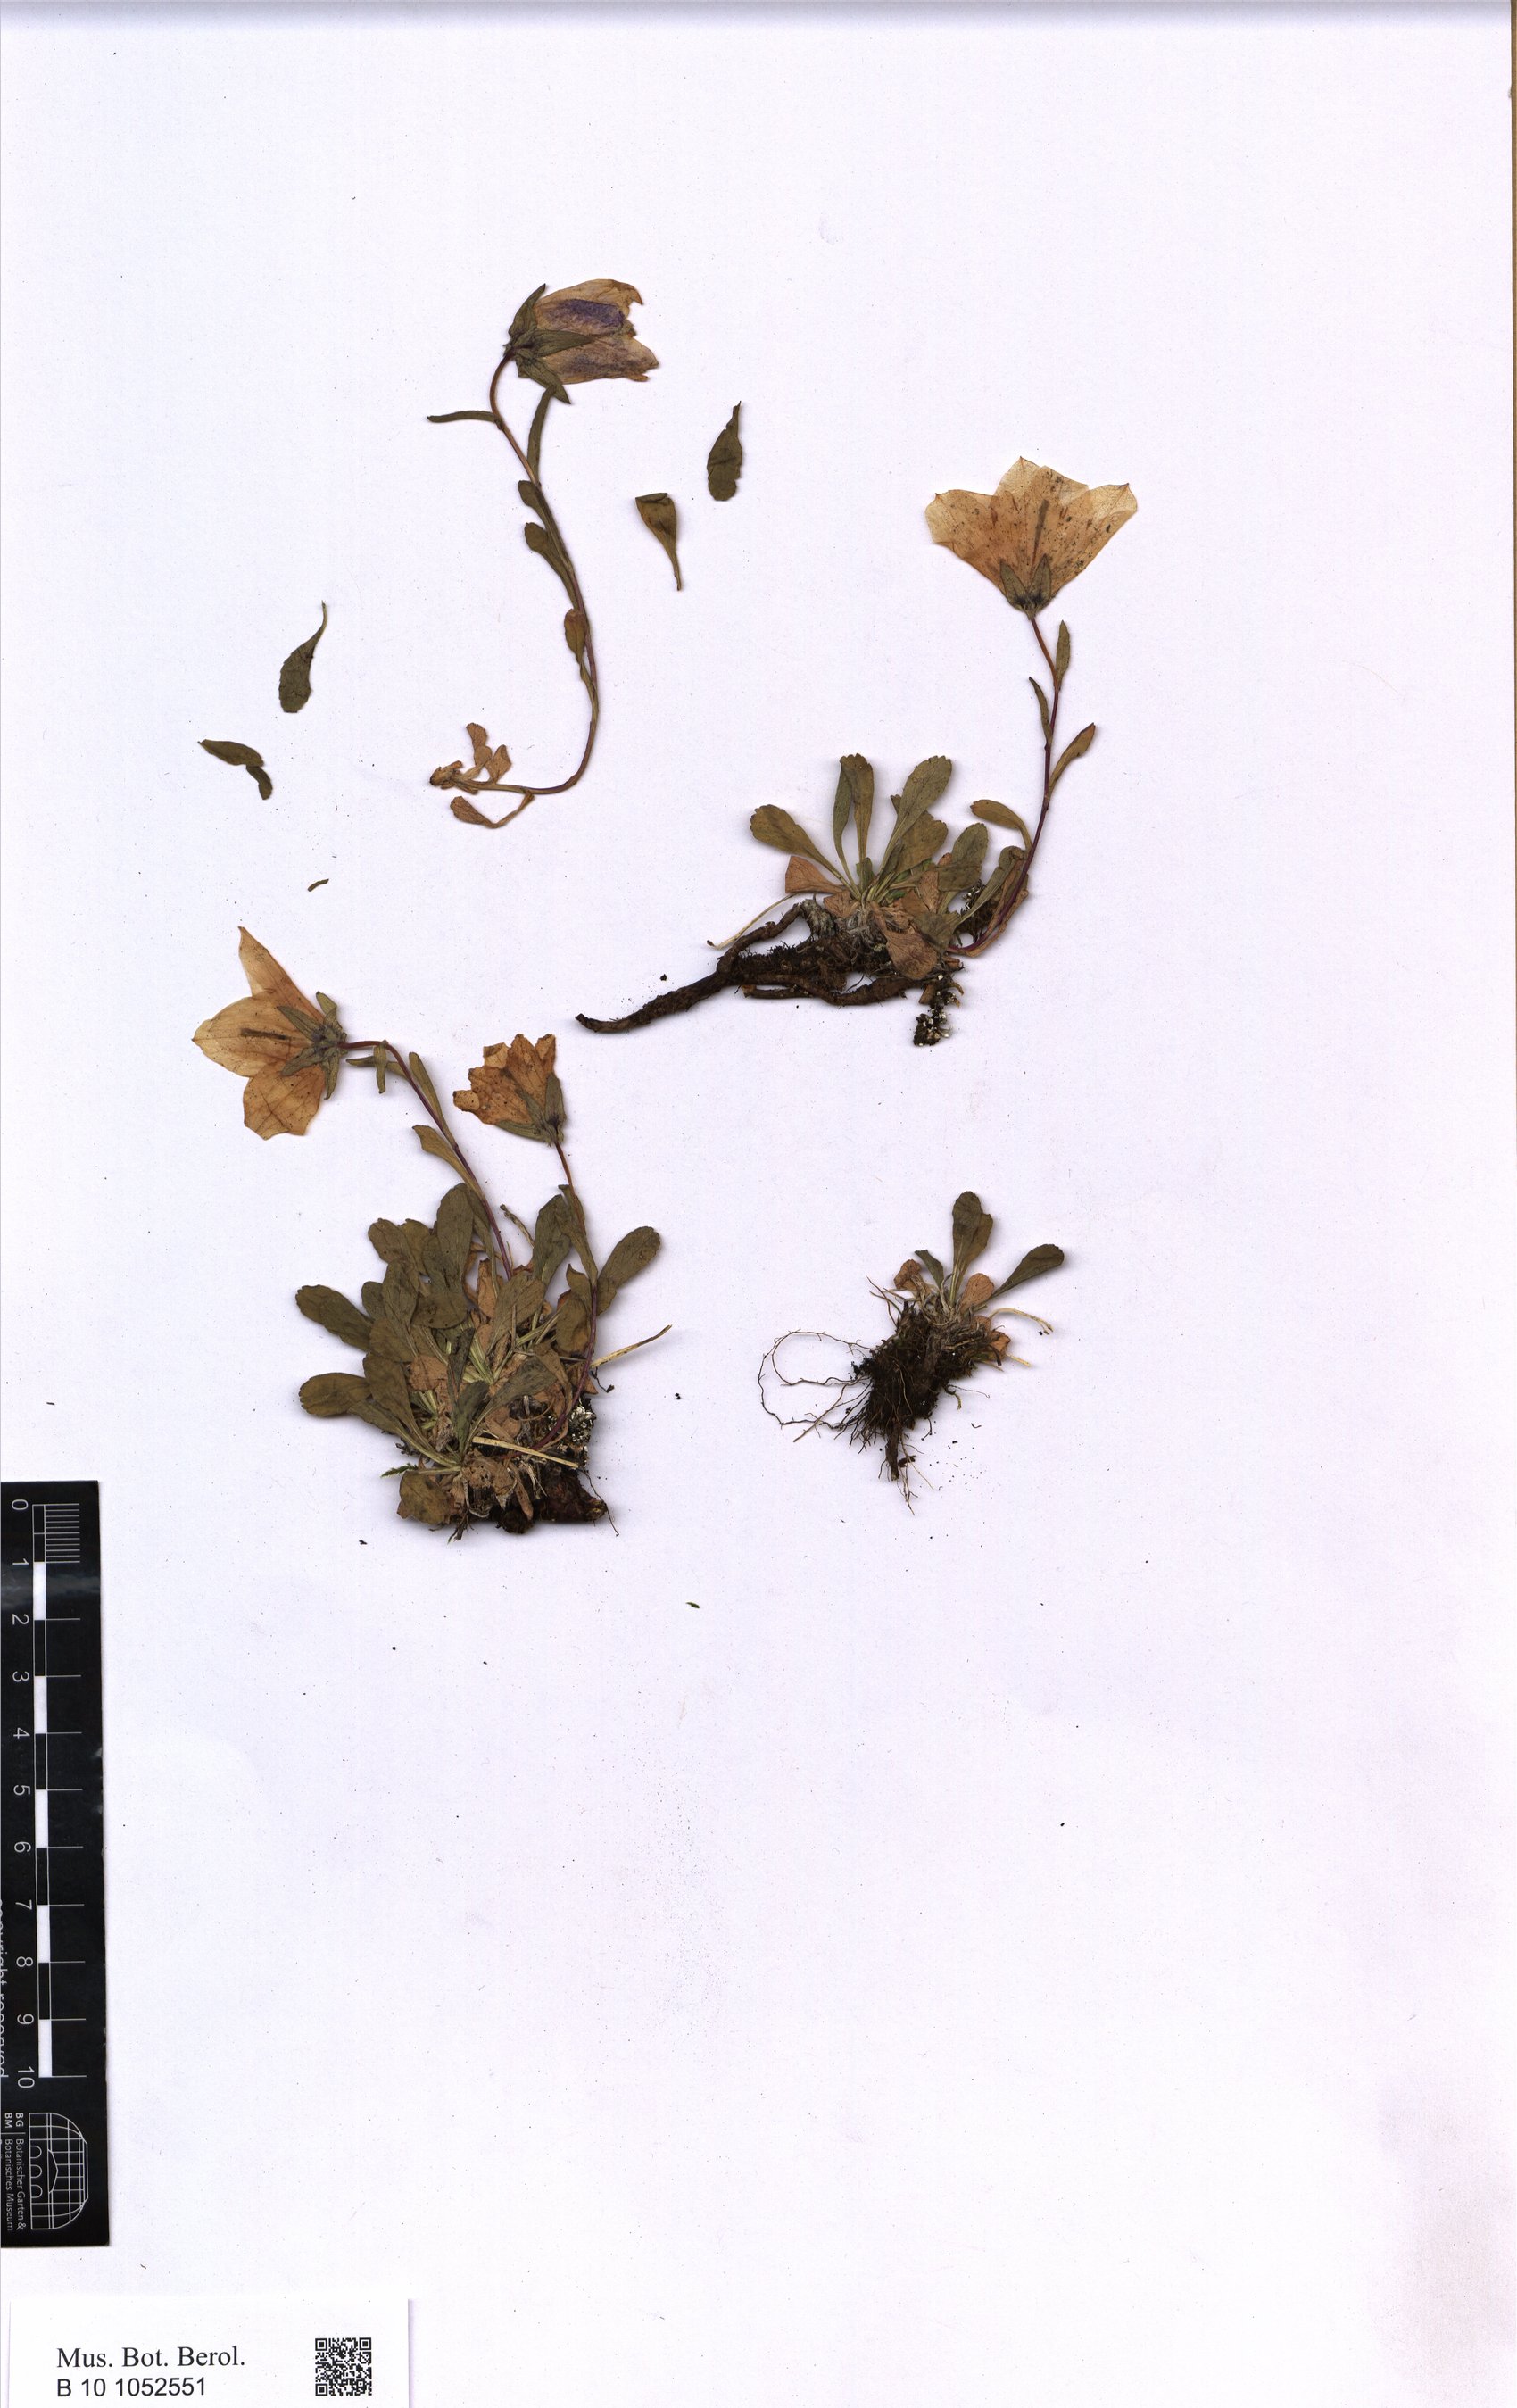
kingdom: Plantae
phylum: Tracheophyta
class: Magnoliopsida
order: Asterales
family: Campanulaceae
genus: Campanula
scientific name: Campanula saxifraga
